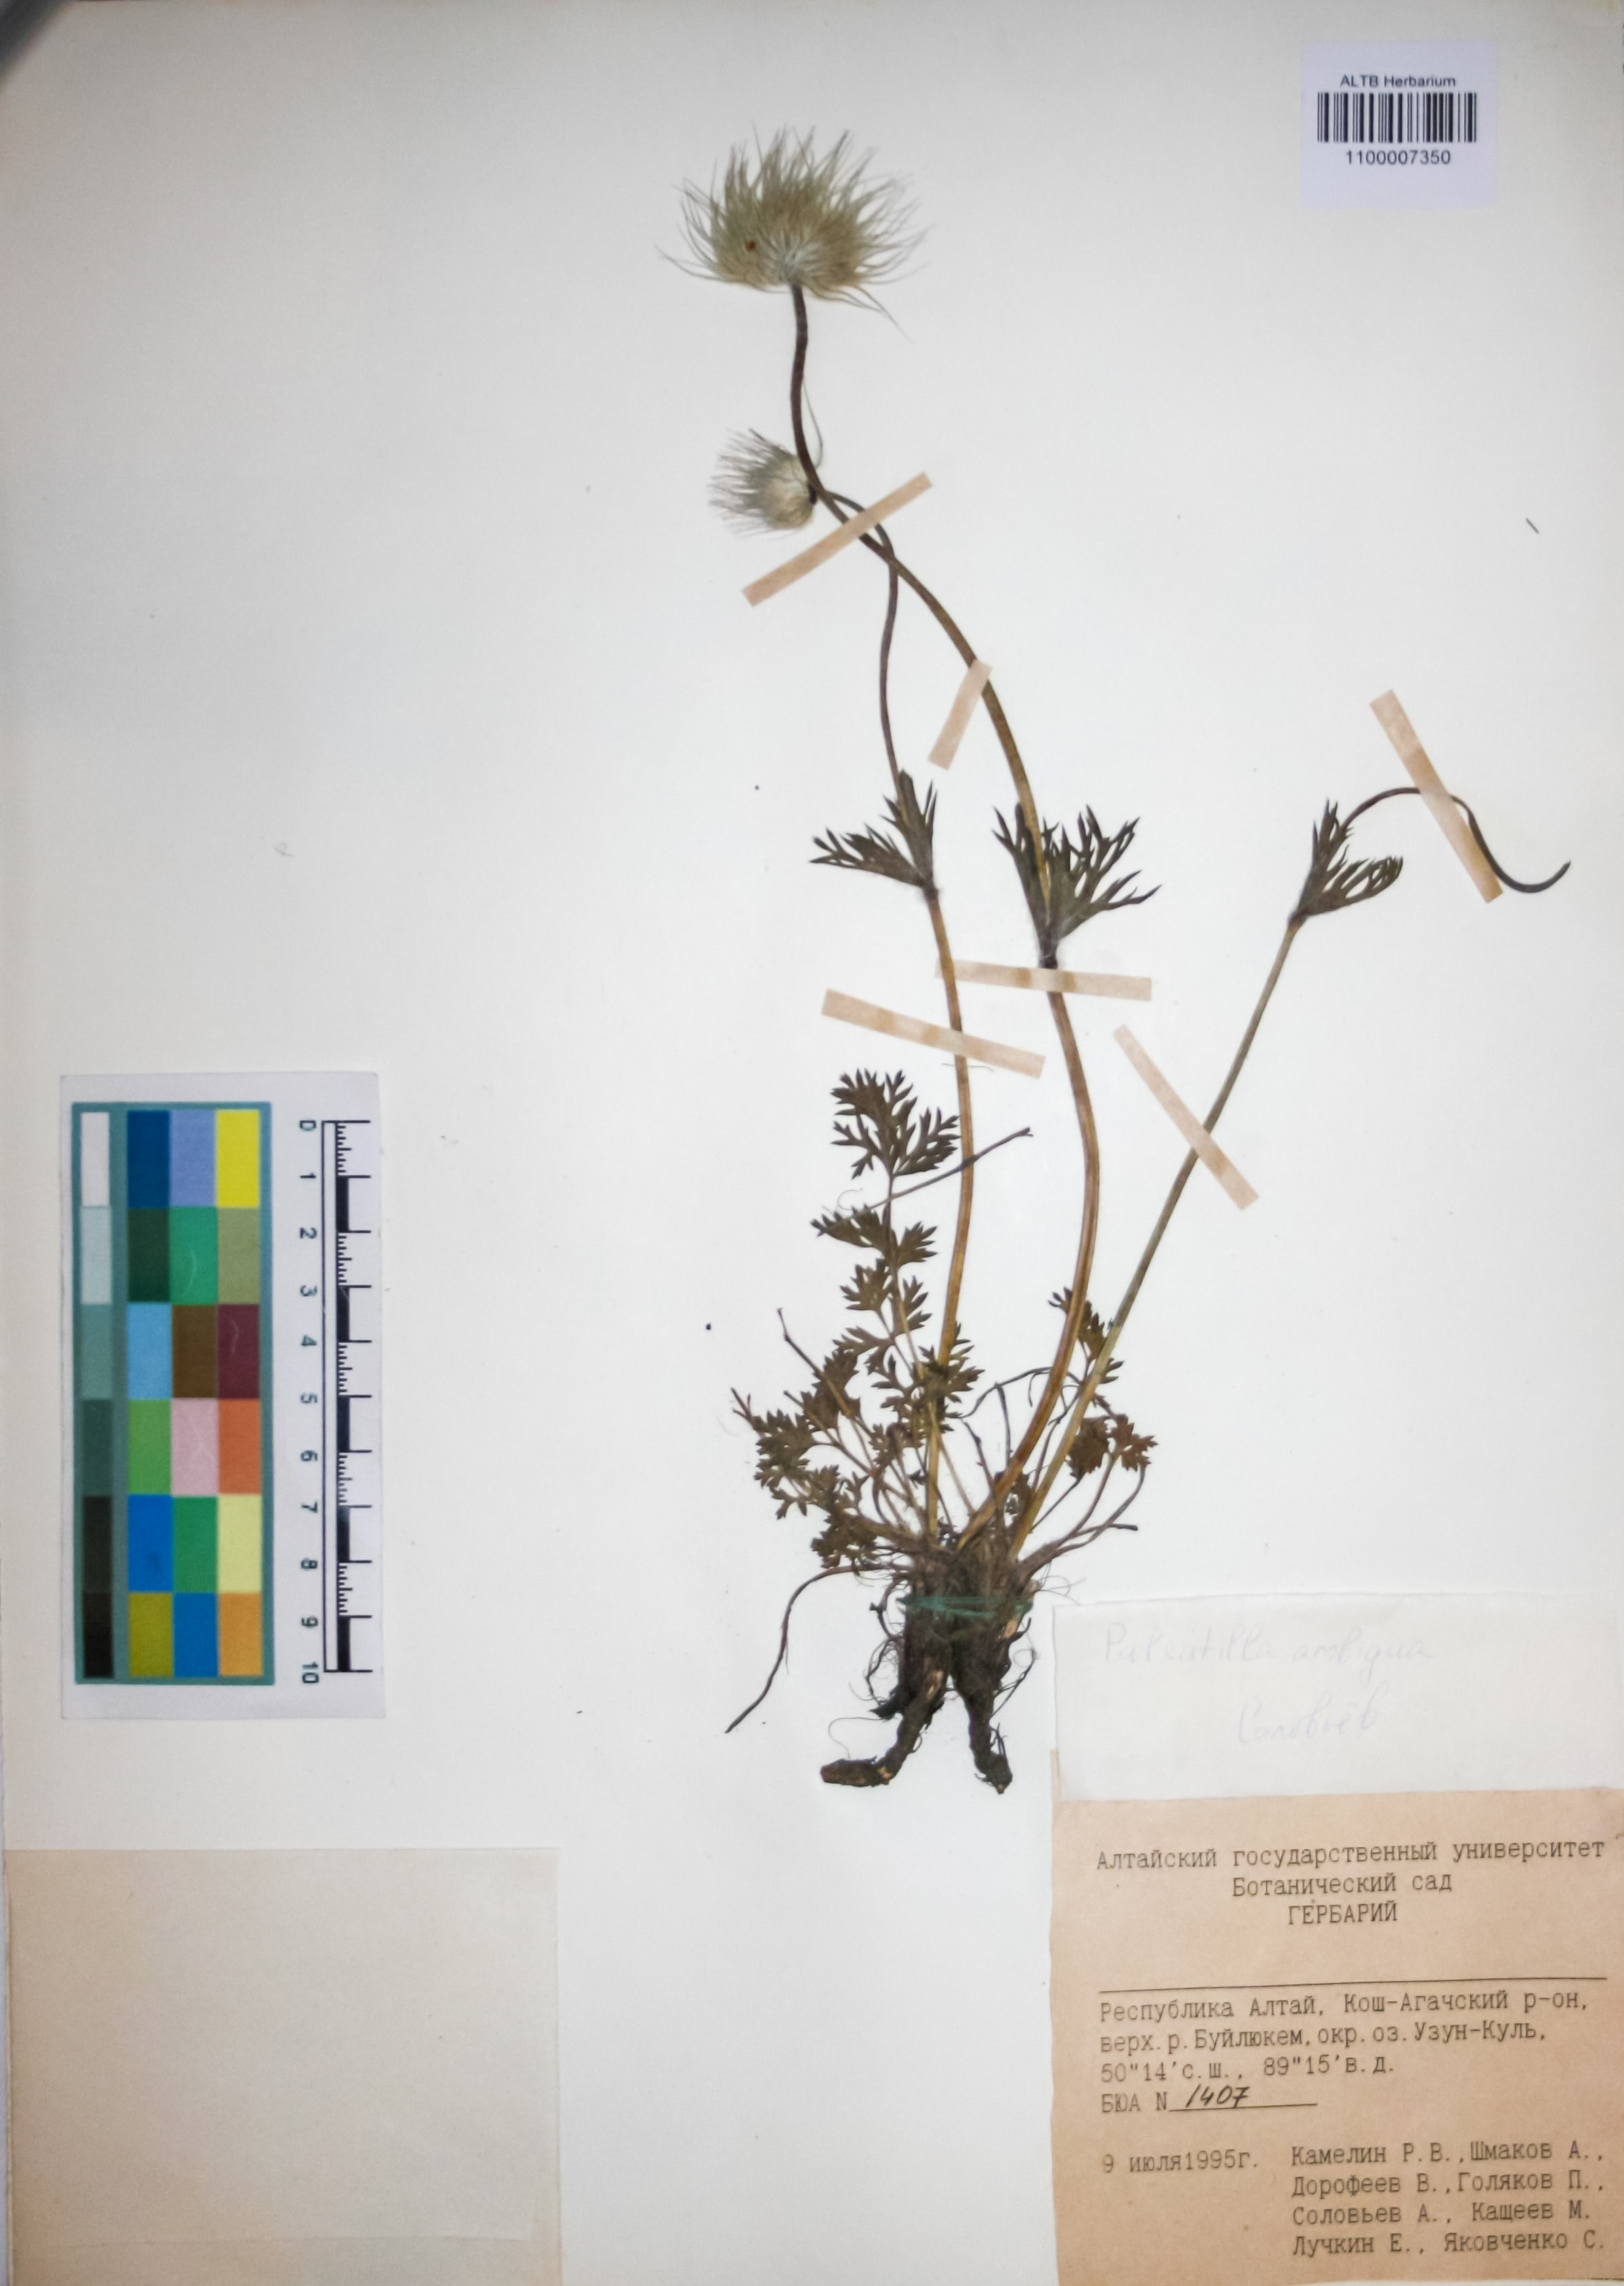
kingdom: Plantae
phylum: Tracheophyta
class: Magnoliopsida
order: Ranunculales
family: Ranunculaceae
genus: Pulsatilla
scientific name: Pulsatilla ambigua
